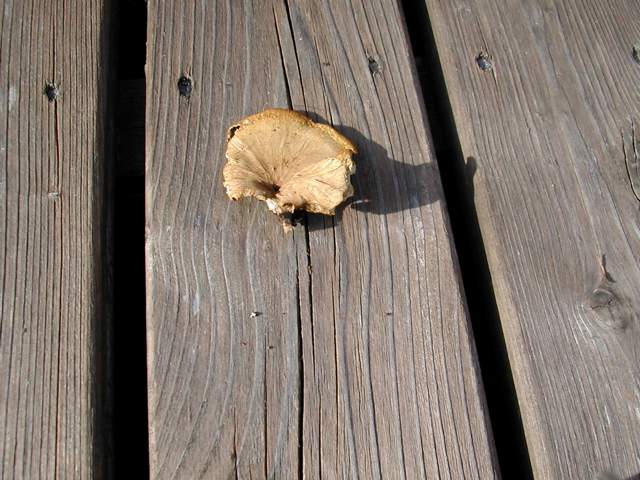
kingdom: Fungi
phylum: Basidiomycota
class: Agaricomycetes
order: Polyporales
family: Polyporaceae
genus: Cerioporus
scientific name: Cerioporus varius
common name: foranderlig stilkporesvamp
